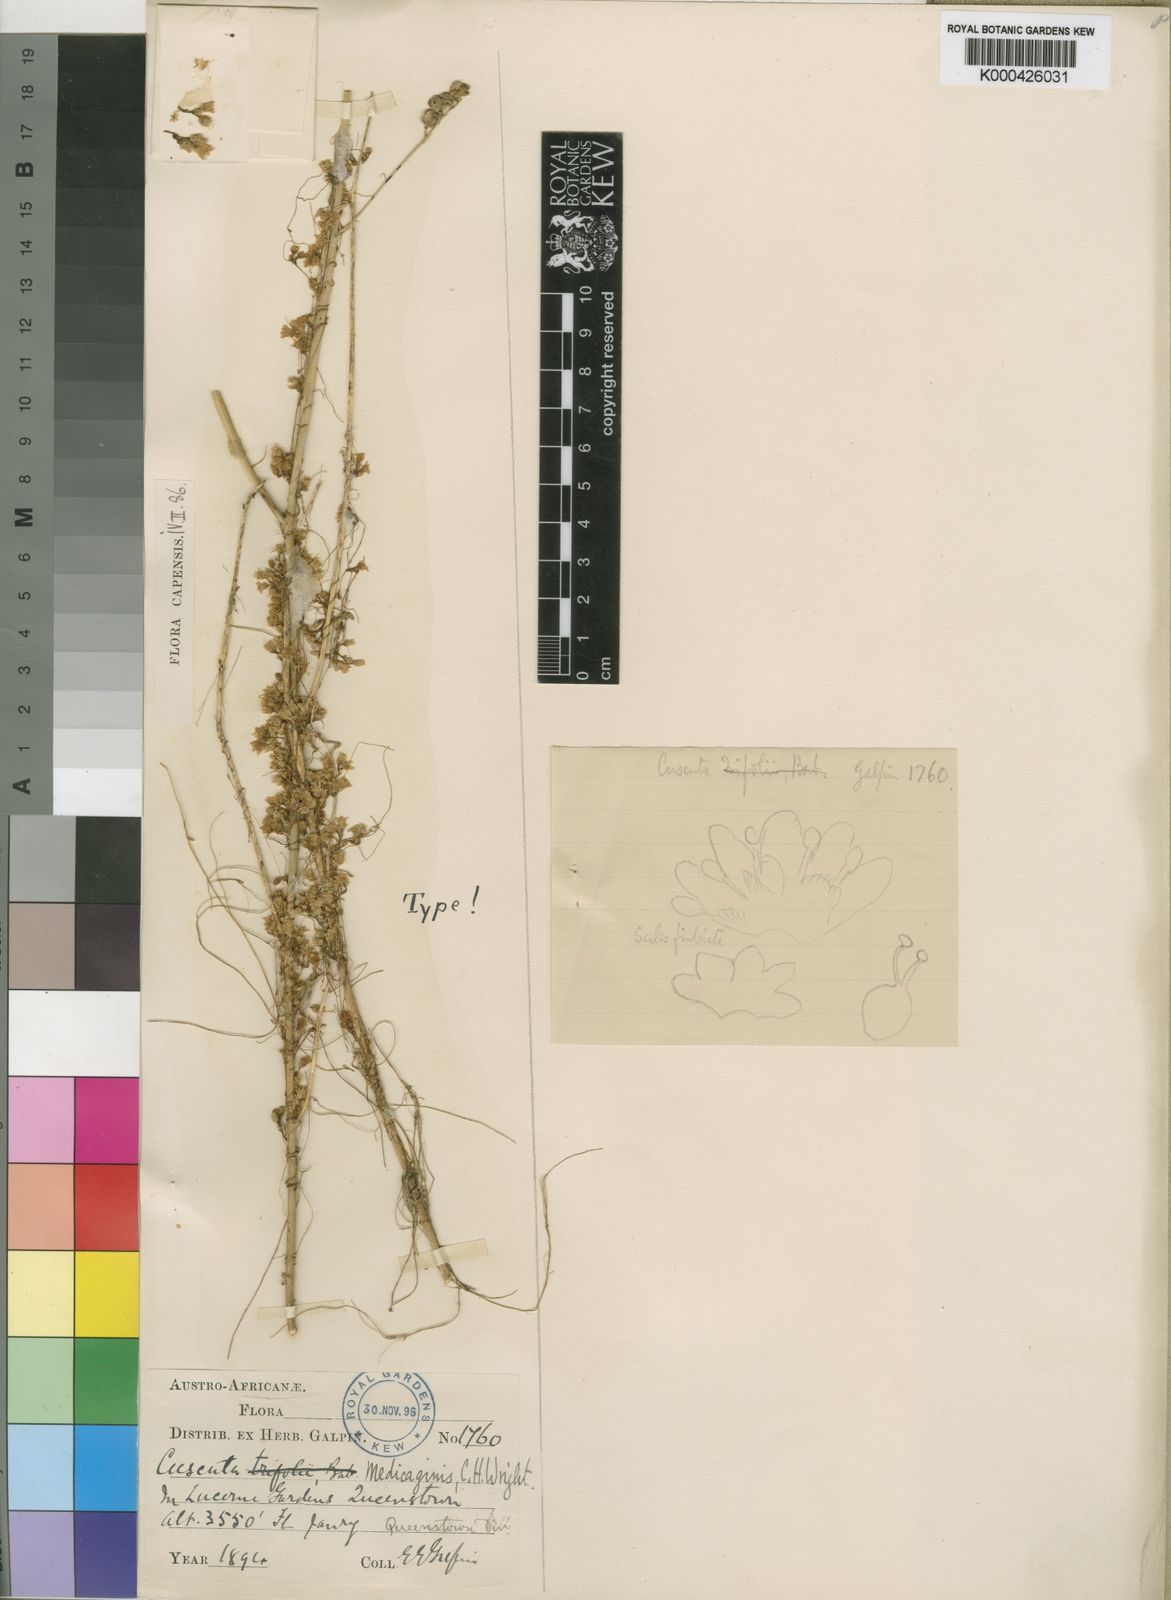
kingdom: Plantae
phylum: Tracheophyta
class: Magnoliopsida
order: Solanales
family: Convolvulaceae
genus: Cuscuta
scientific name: Cuscuta suaveolens
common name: Fringed dodder
